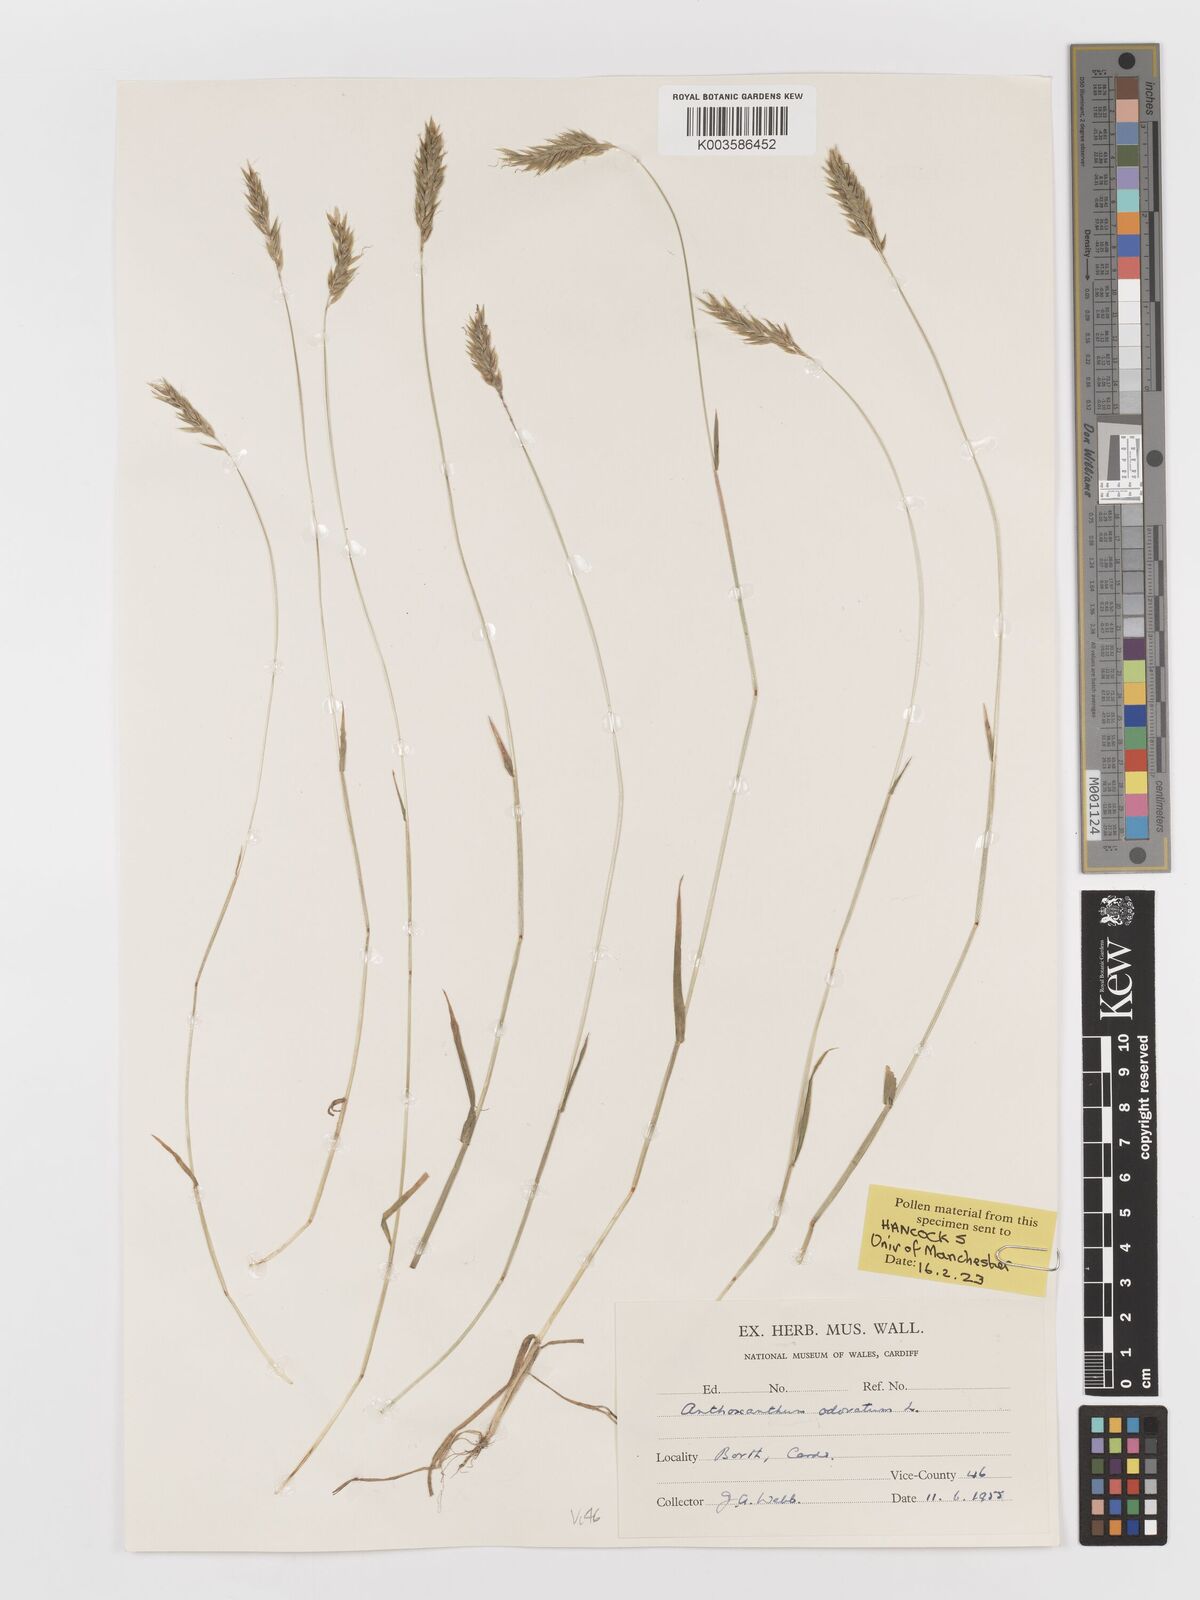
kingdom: Plantae
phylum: Tracheophyta
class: Liliopsida
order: Poales
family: Poaceae
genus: Anthoxanthum
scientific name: Anthoxanthum odoratum
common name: Sweet vernalgrass
